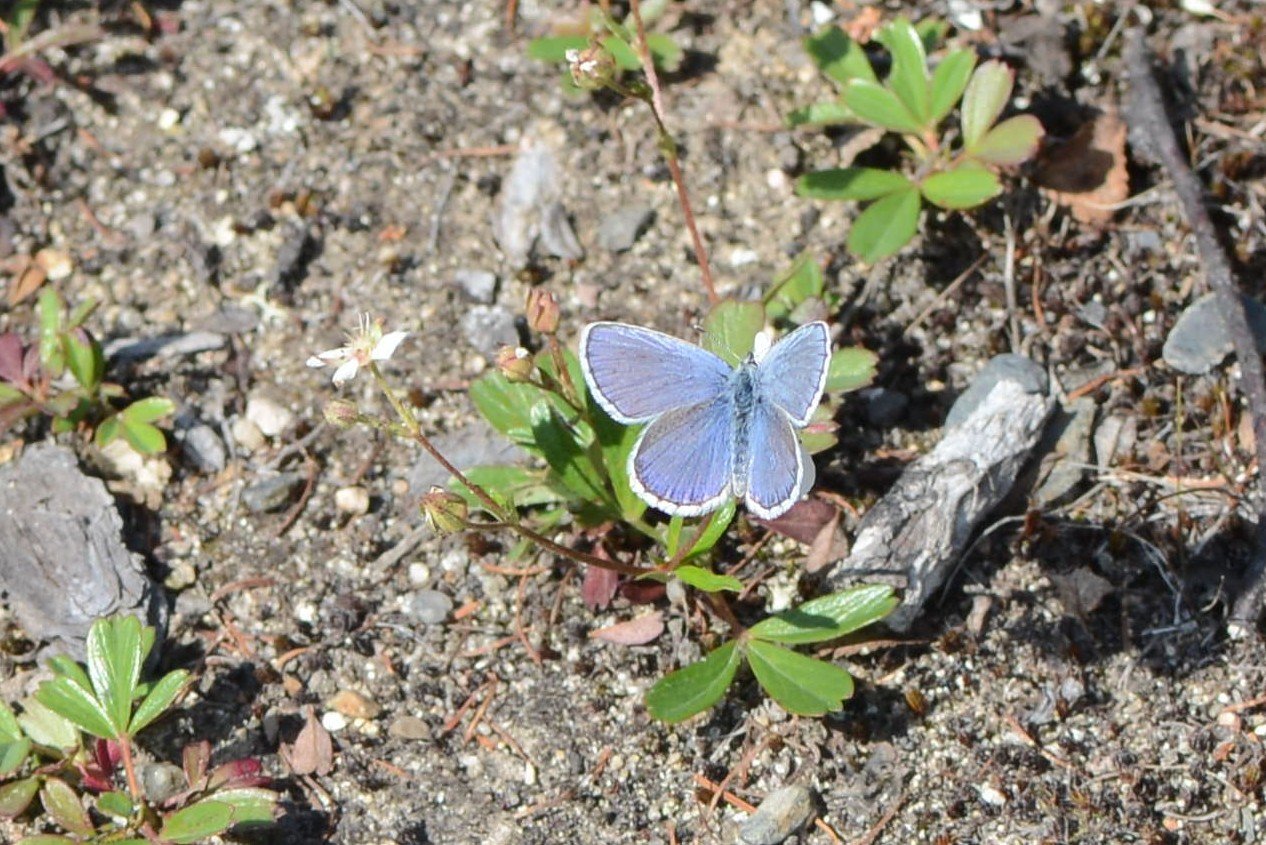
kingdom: Animalia
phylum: Arthropoda
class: Insecta
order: Lepidoptera
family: Lycaenidae
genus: Lycaeides
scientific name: Lycaeides idas
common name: Northern Blue
